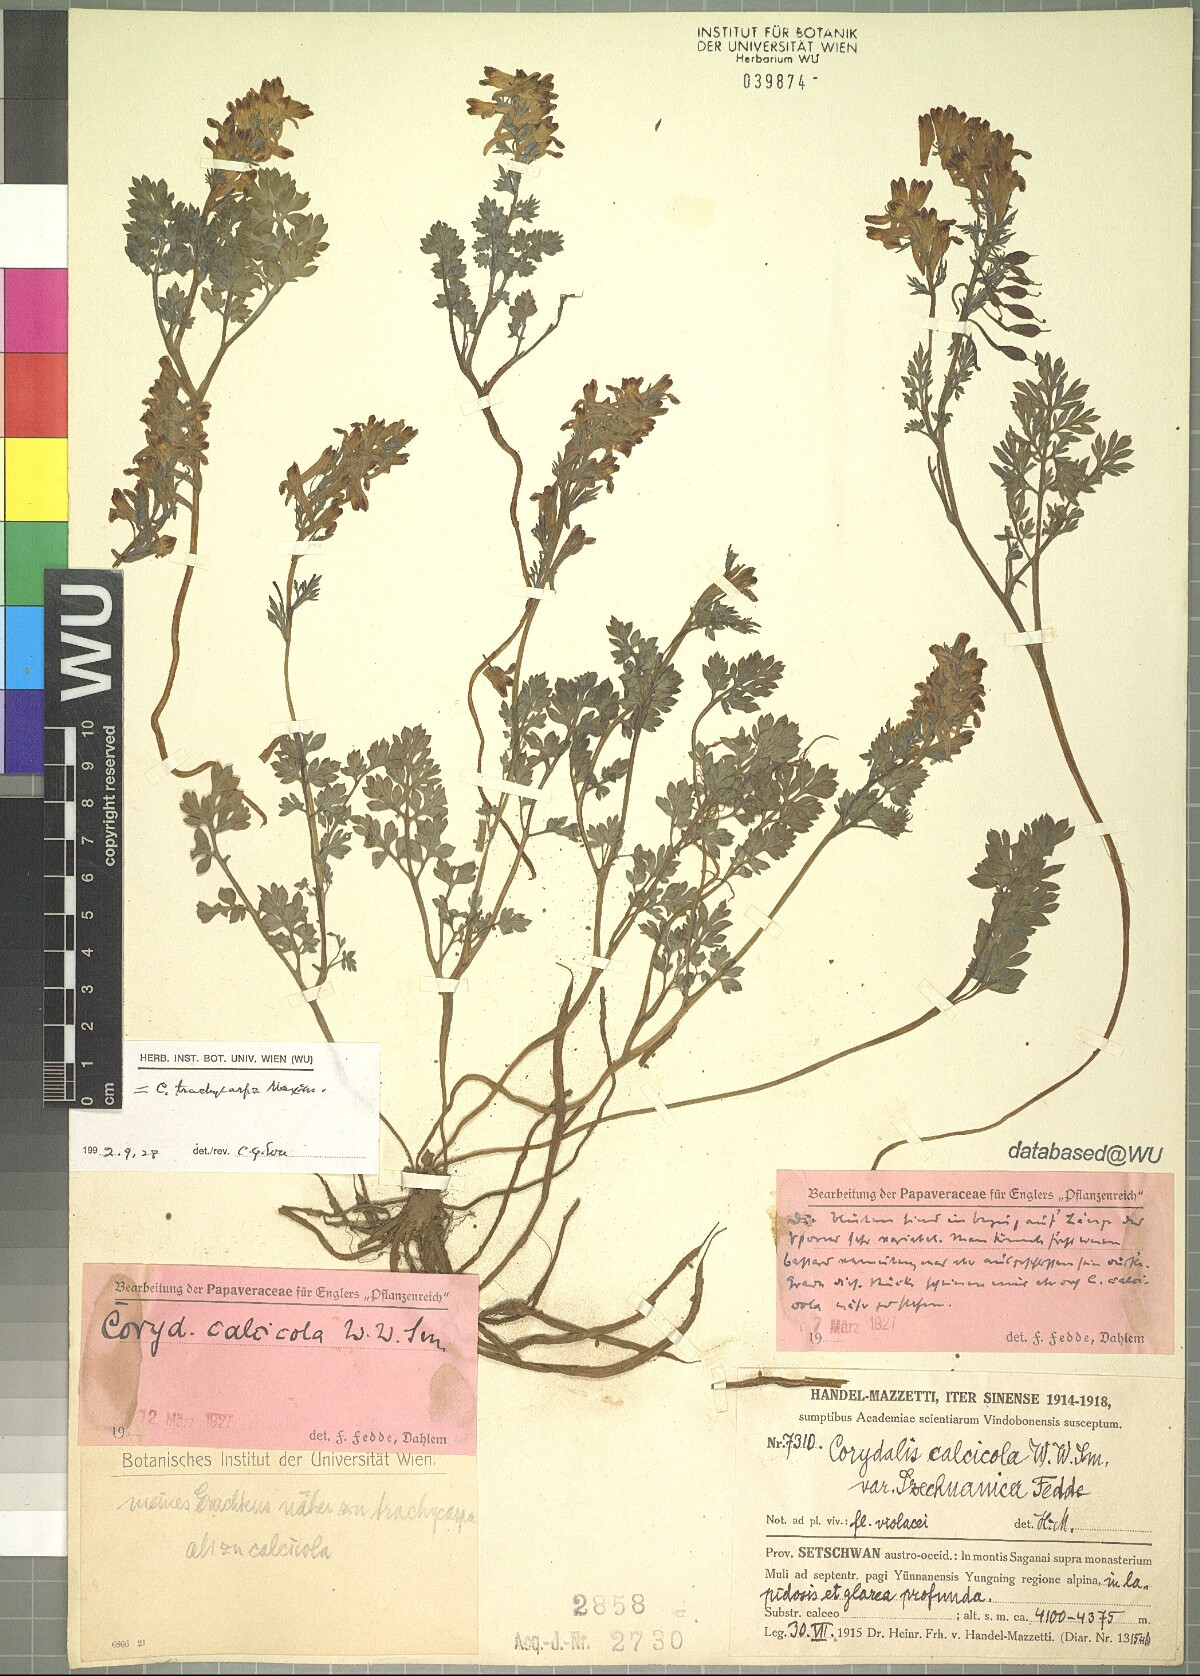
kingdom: Plantae
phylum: Tracheophyta
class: Magnoliopsida
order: Ranunculales
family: Papaveraceae
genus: Corydalis
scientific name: Corydalis trachycarpa
